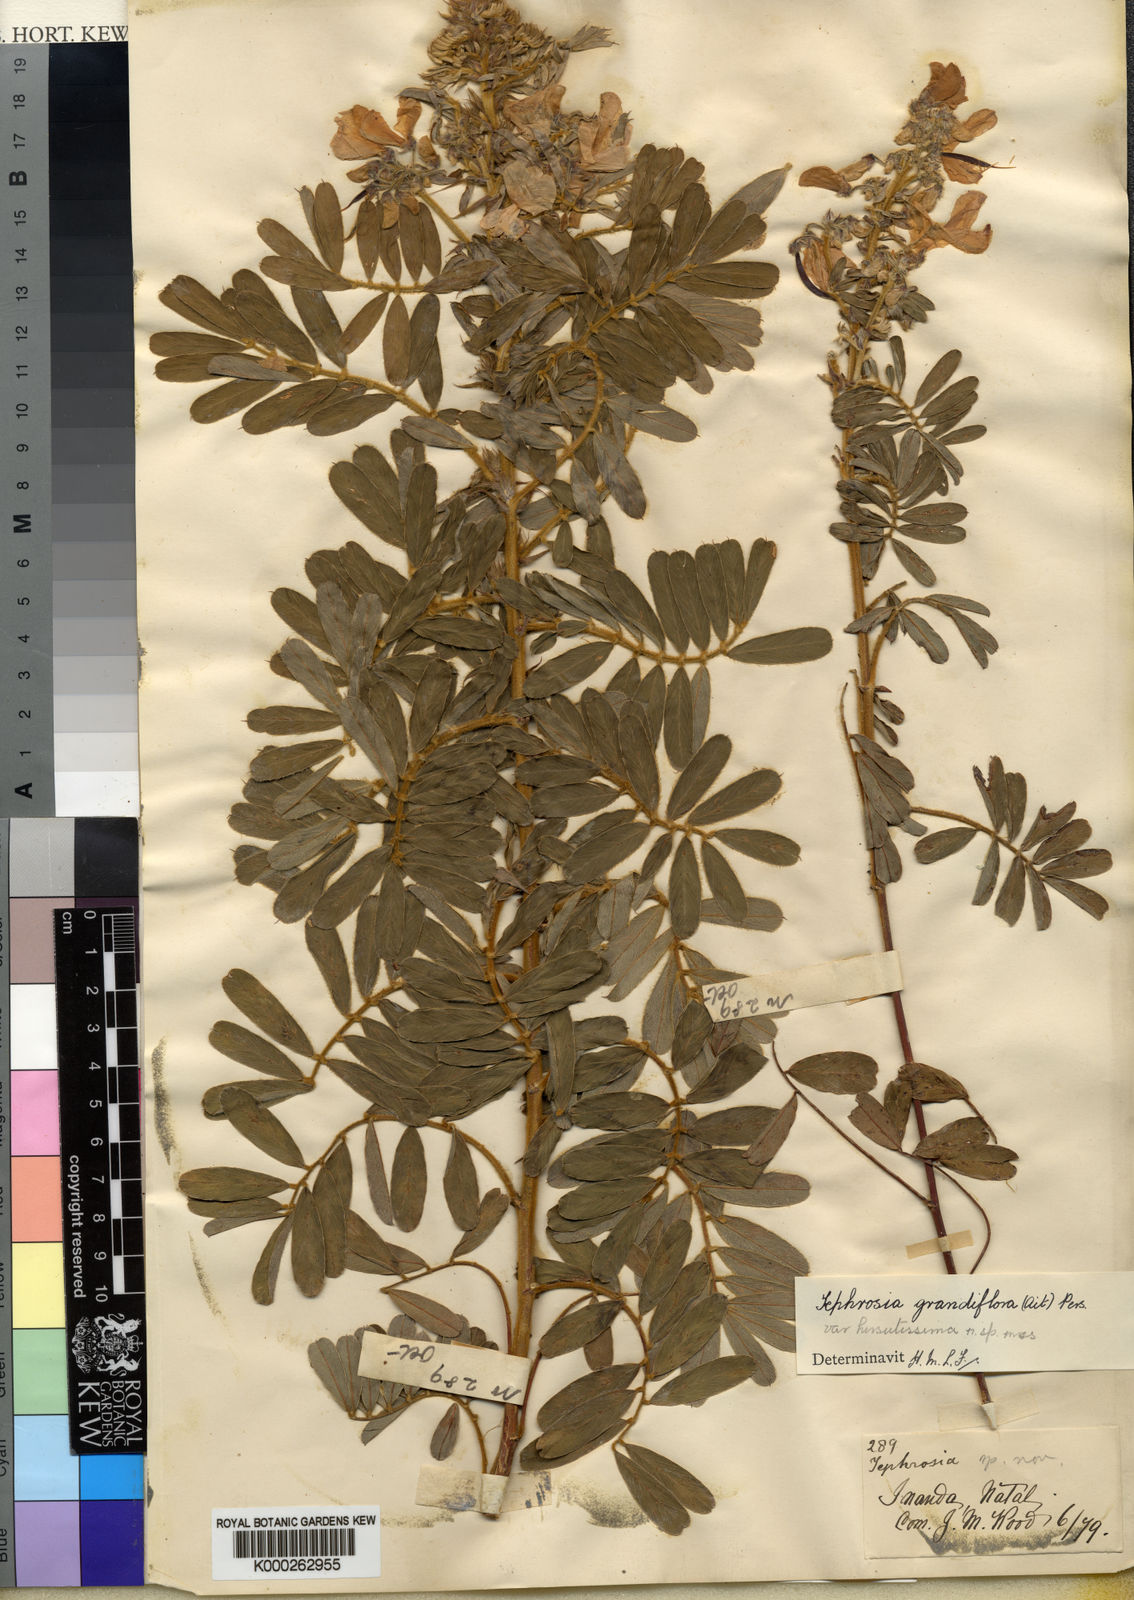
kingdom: Plantae
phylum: Tracheophyta
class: Magnoliopsida
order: Fabales
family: Fabaceae
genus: Tephrosia
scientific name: Tephrosia inandensis
